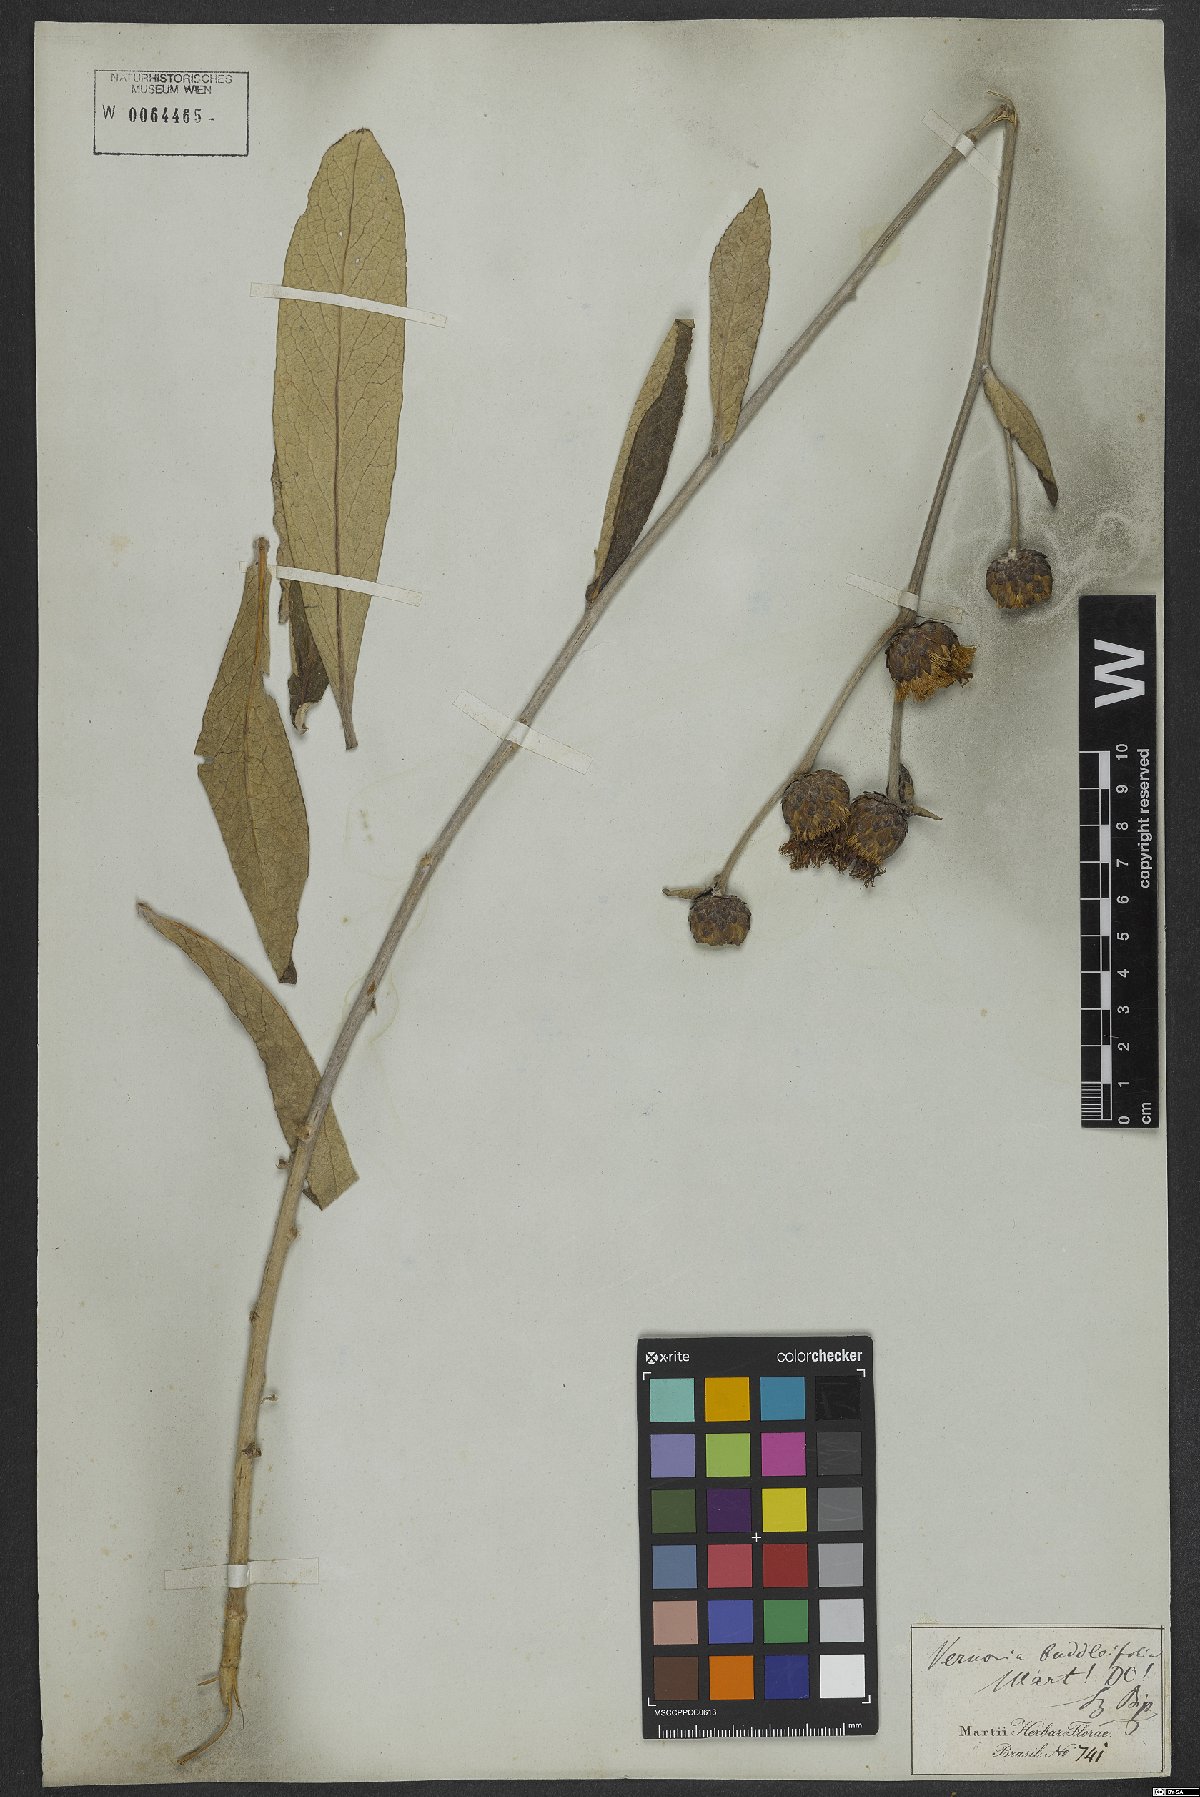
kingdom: Plantae
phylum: Tracheophyta
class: Magnoliopsida
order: Asterales
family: Asteraceae
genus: Lessingianthus
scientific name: Lessingianthus buddlejifolius
